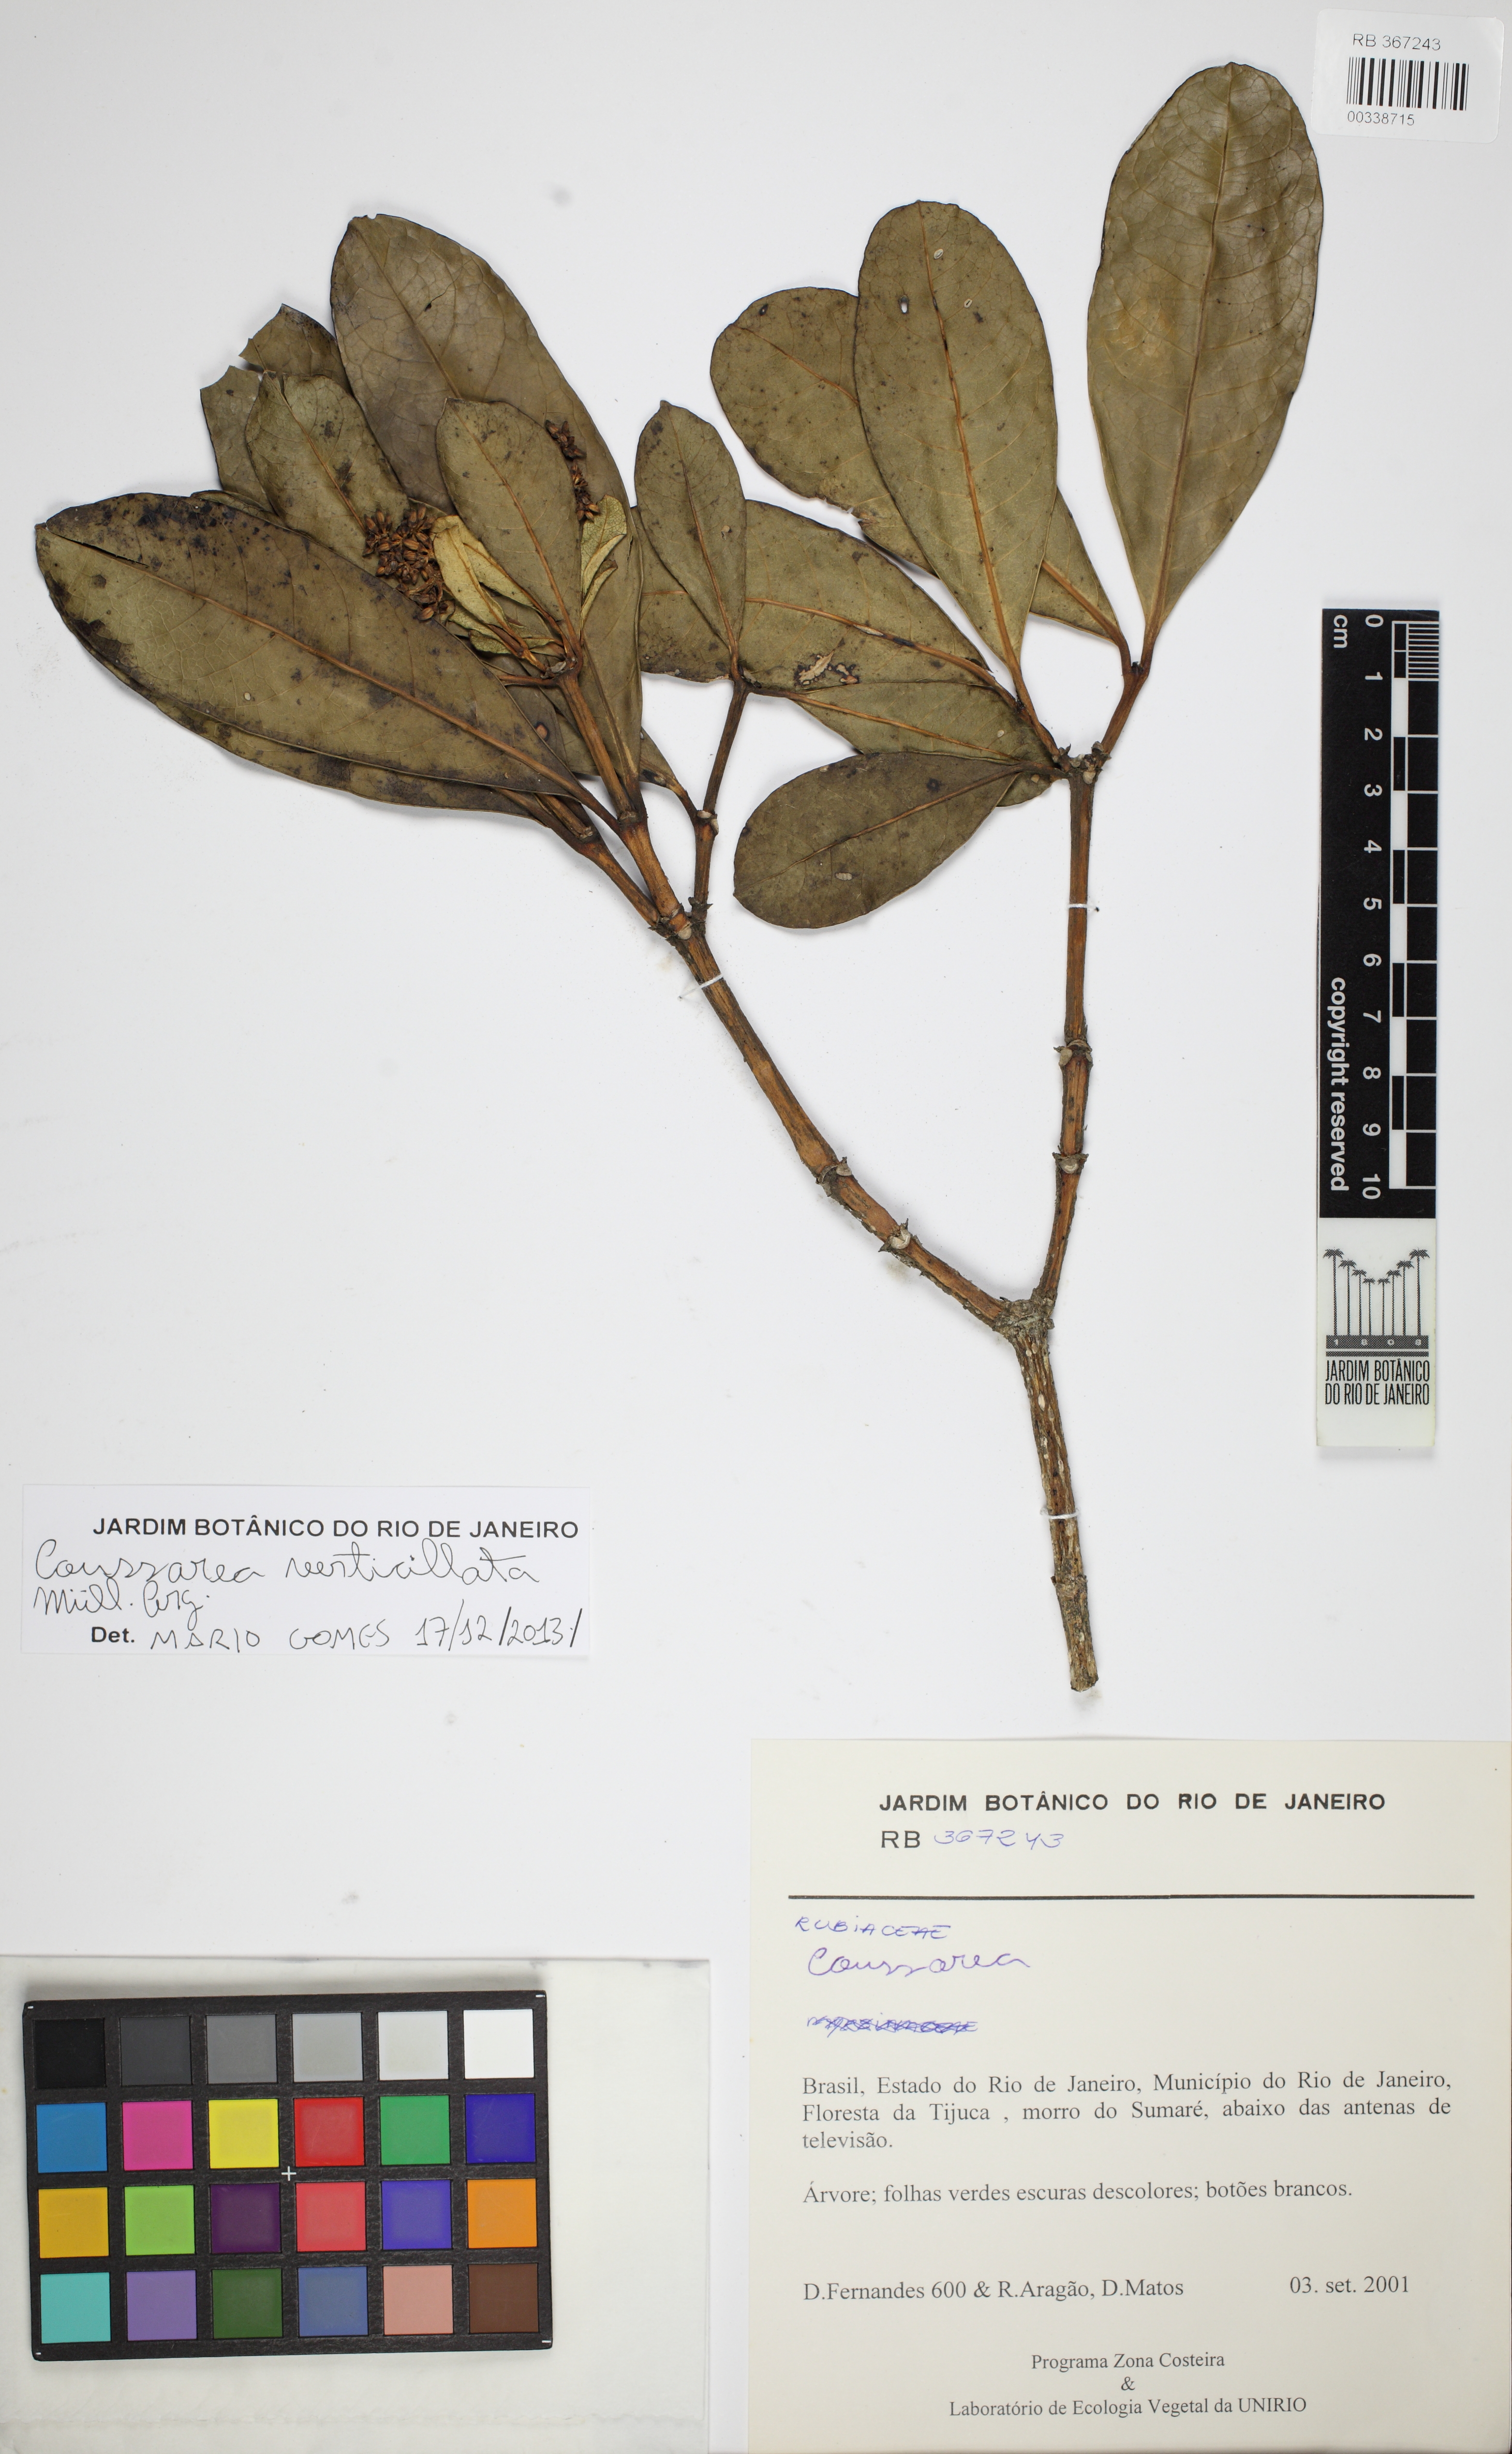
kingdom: Plantae
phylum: Tracheophyta
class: Magnoliopsida
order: Gentianales
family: Rubiaceae
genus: Coussarea
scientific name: Coussarea verticillata
